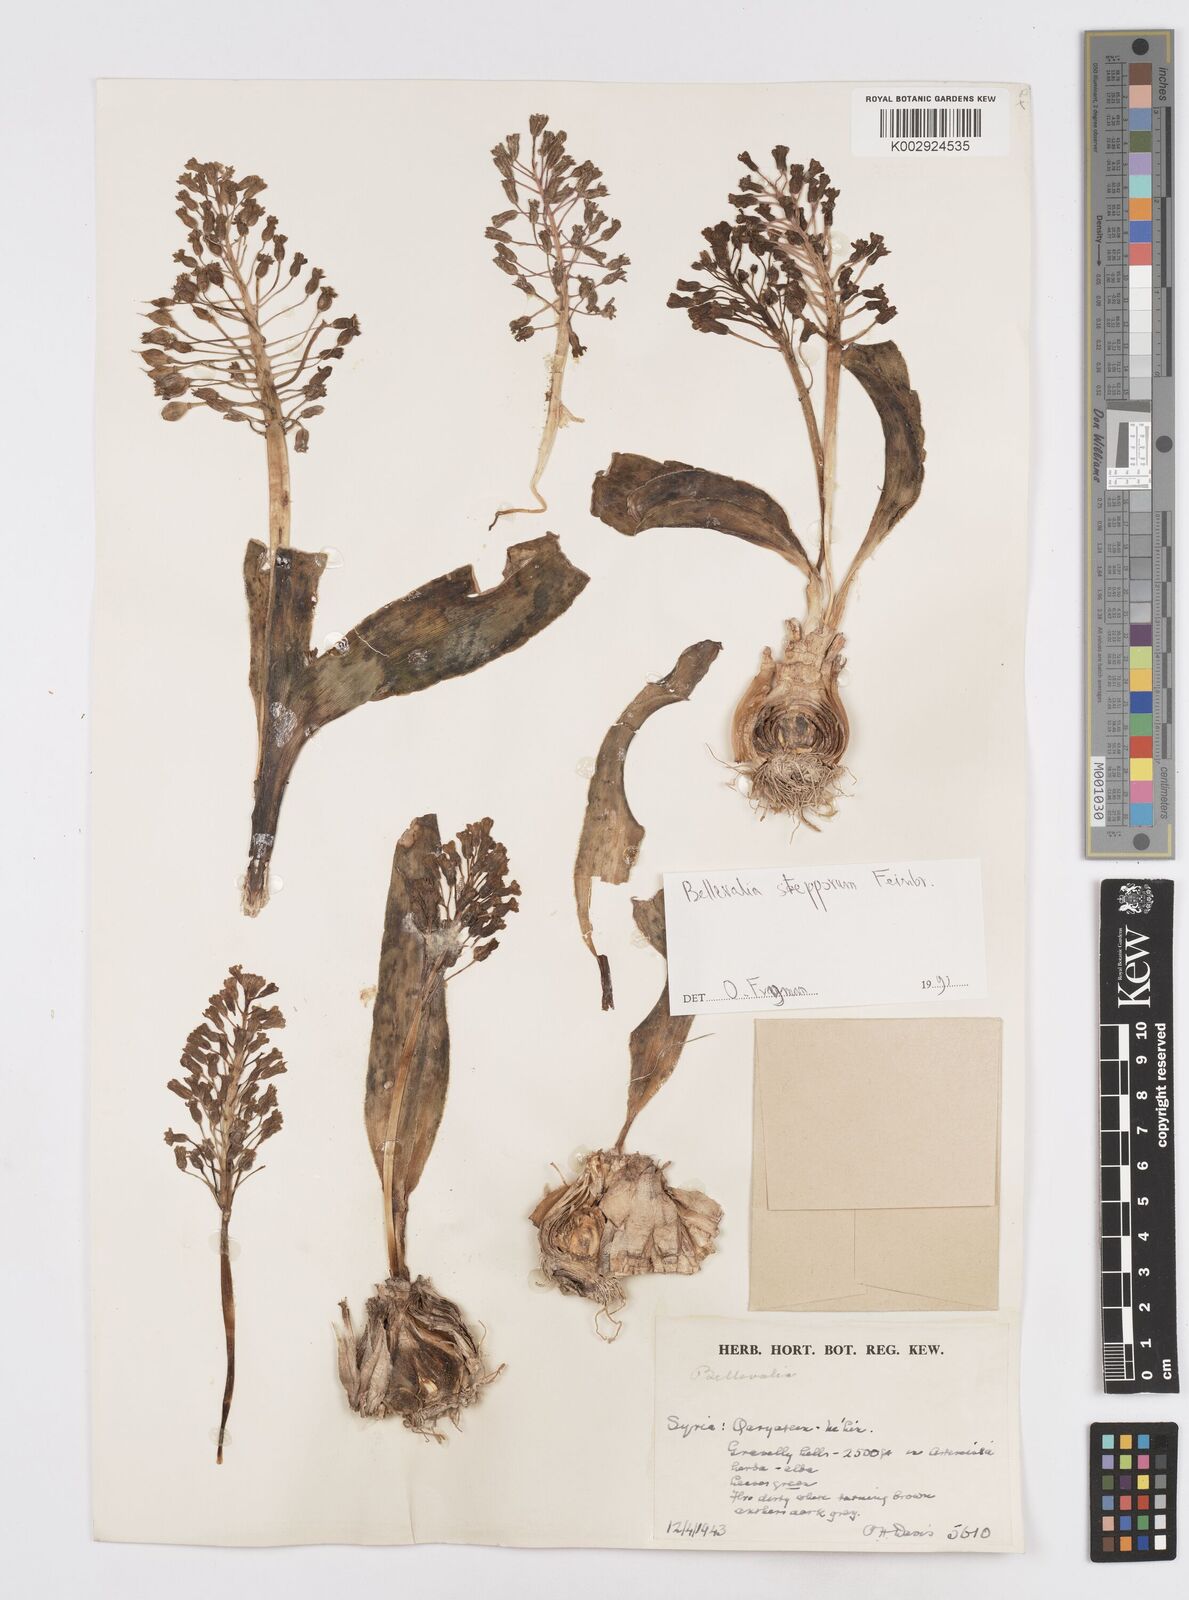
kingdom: Plantae
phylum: Tracheophyta
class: Liliopsida
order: Asparagales
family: Asparagaceae
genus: Bellevalia
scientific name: Bellevalia stepporum
